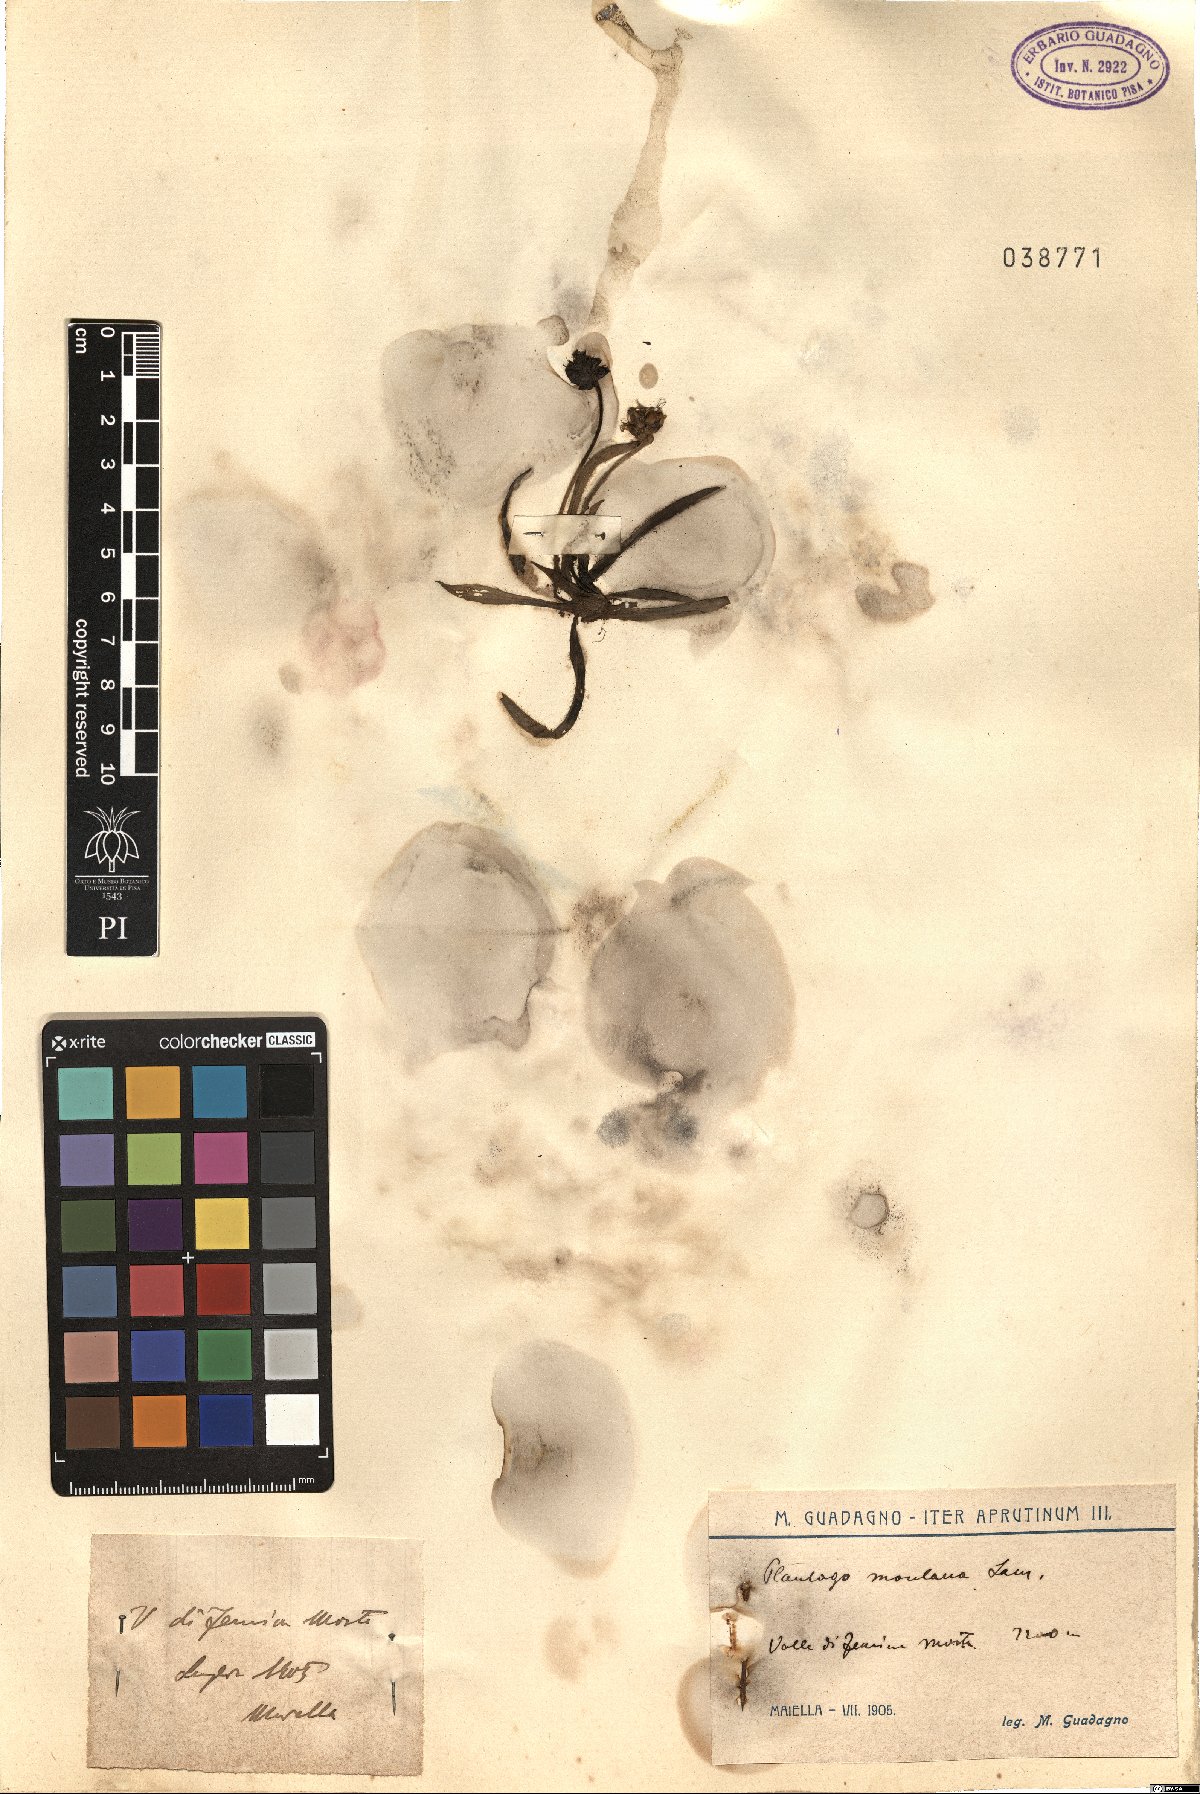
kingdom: Plantae
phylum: Tracheophyta
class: Magnoliopsida
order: Lamiales
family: Plantaginaceae
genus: Plantago
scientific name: Plantago atrata
